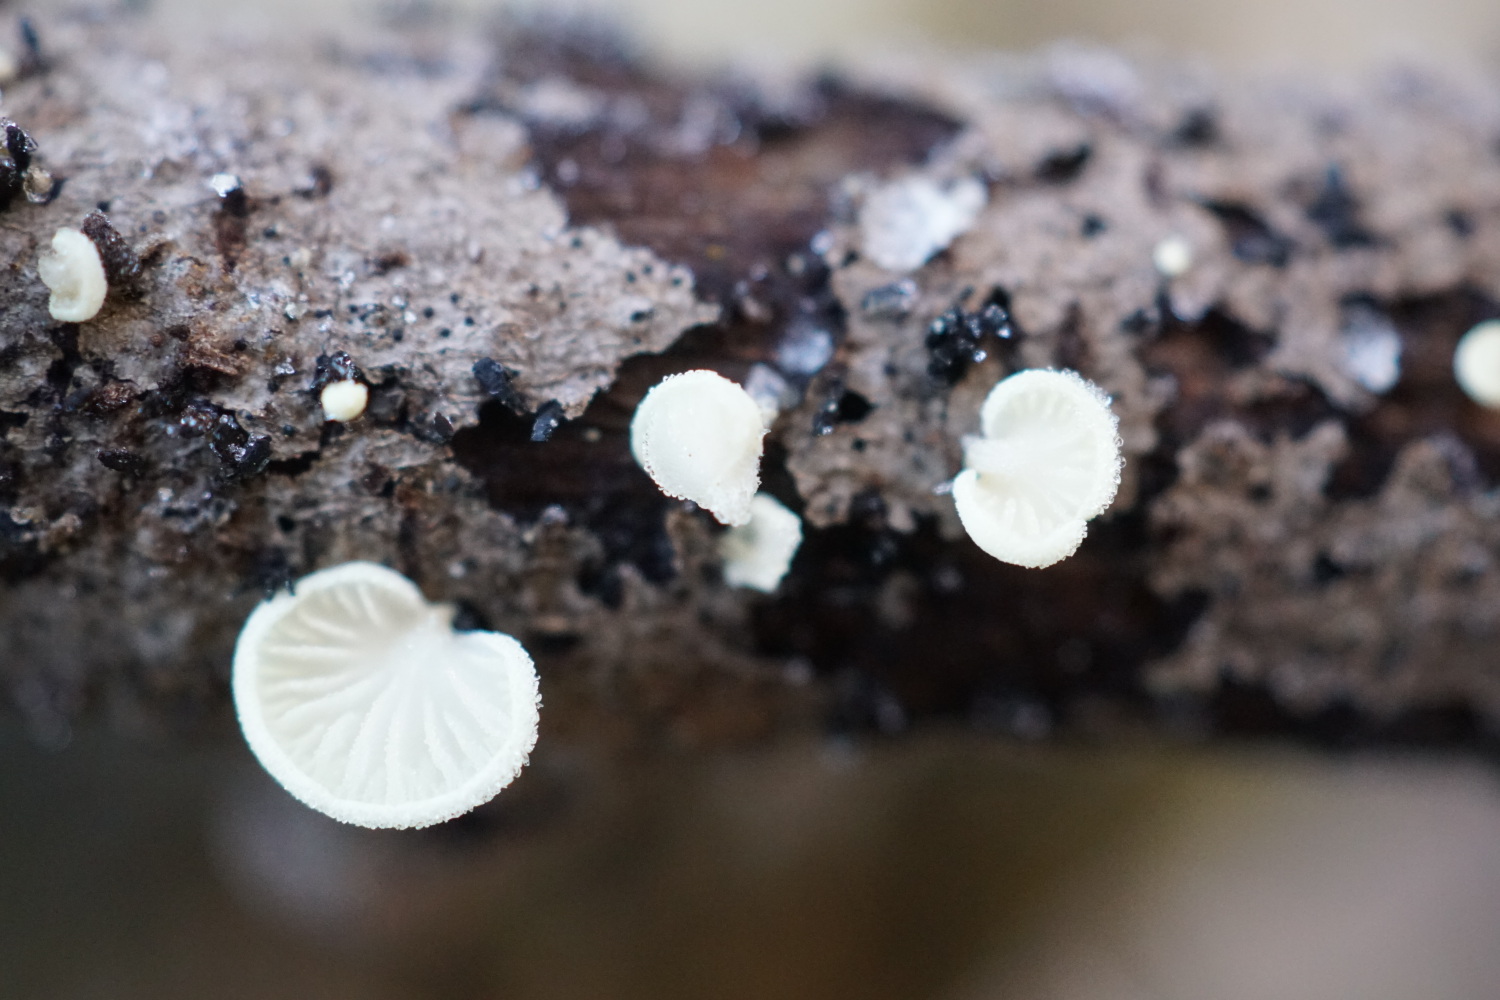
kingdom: Fungi
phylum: Basidiomycota
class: Agaricomycetes
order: Agaricales
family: Entolomataceae
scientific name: Entolomataceae
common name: rødbladfamilien
